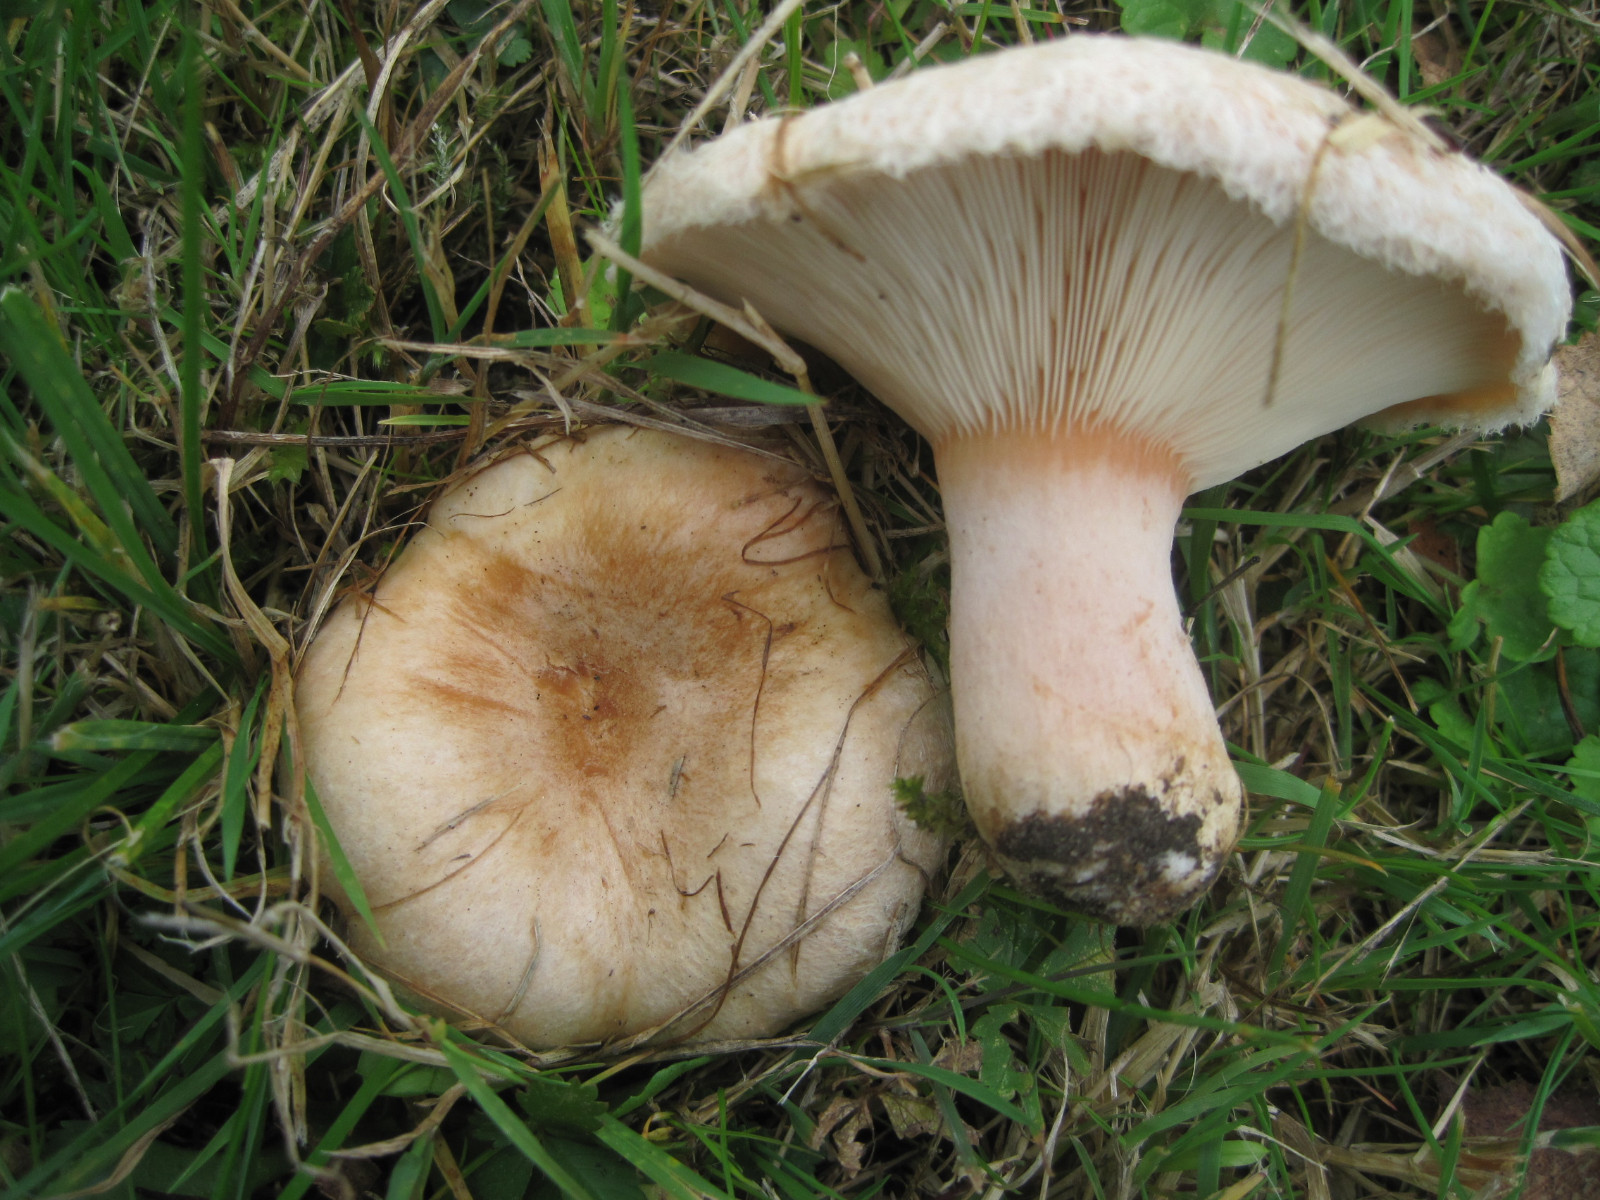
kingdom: Fungi
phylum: Basidiomycota
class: Agaricomycetes
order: Russulales
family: Russulaceae
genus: Lactarius
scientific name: Lactarius pubescens
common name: dunet mælkehat
